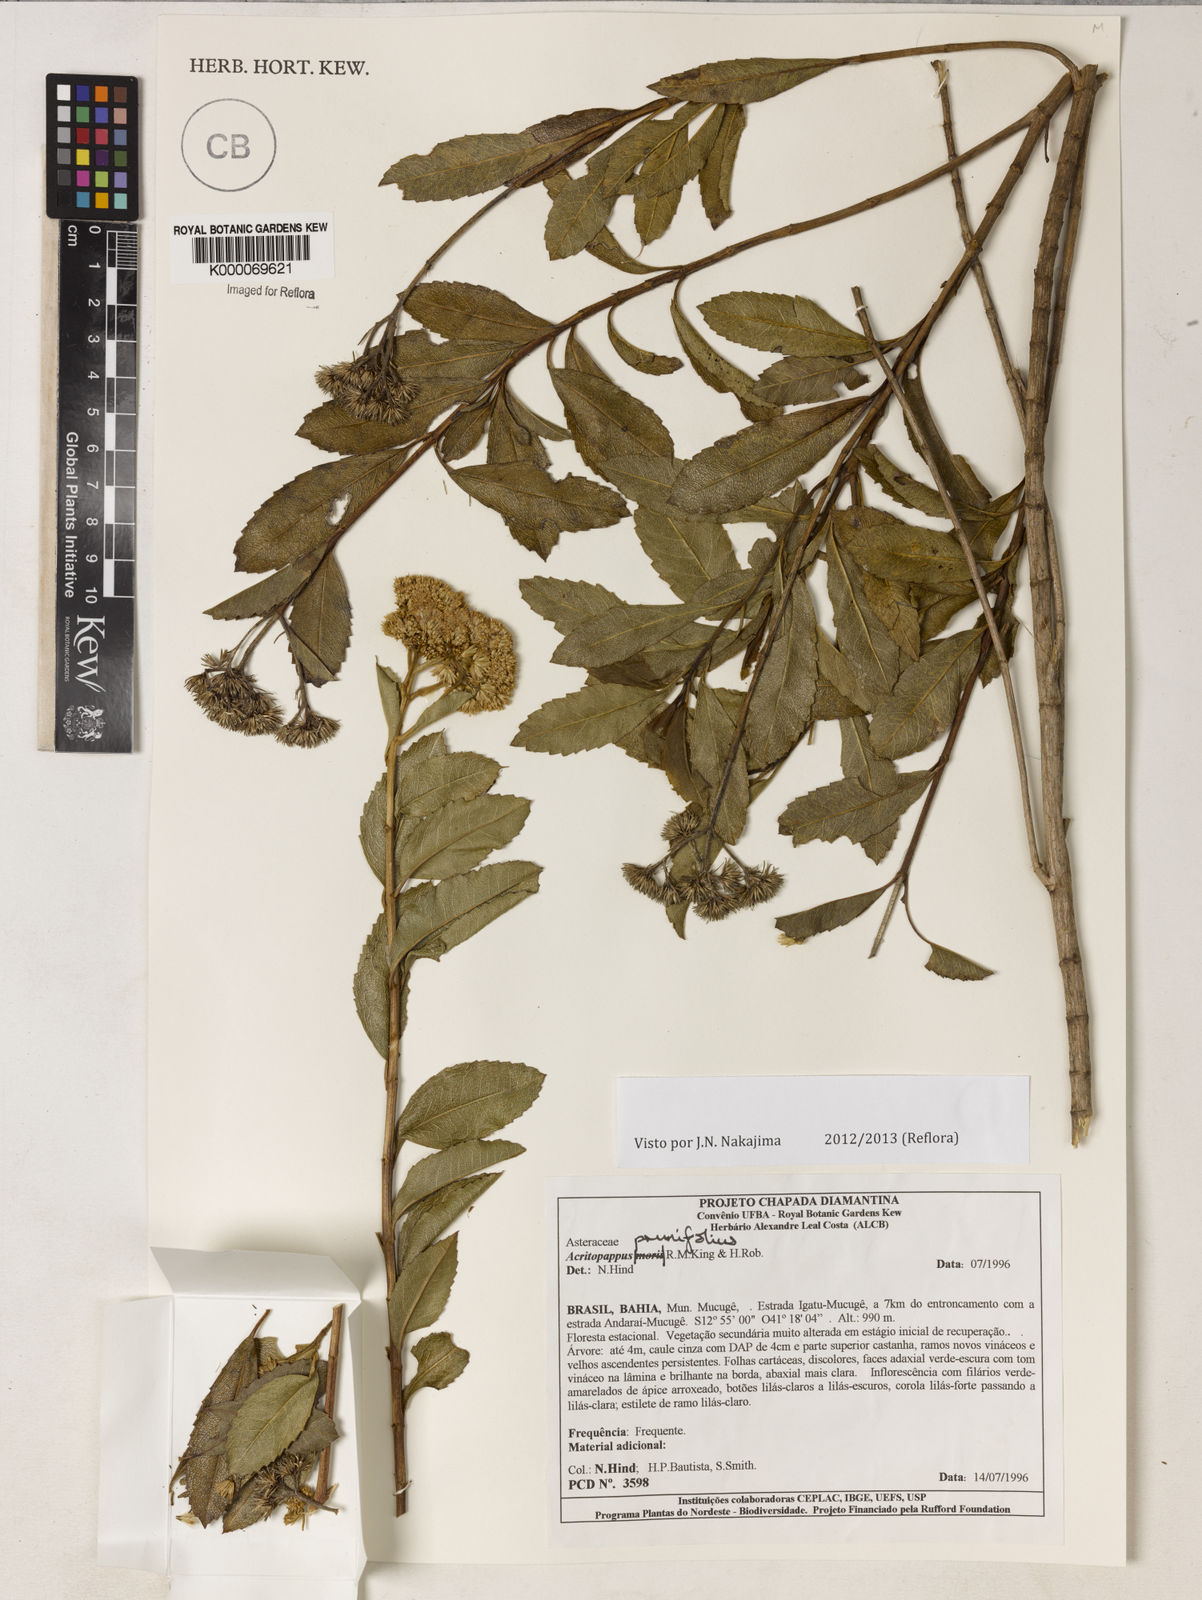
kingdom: Plantae
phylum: Tracheophyta
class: Magnoliopsida
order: Asterales
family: Asteraceae
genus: Acritopappus
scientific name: Acritopappus prunifolius
